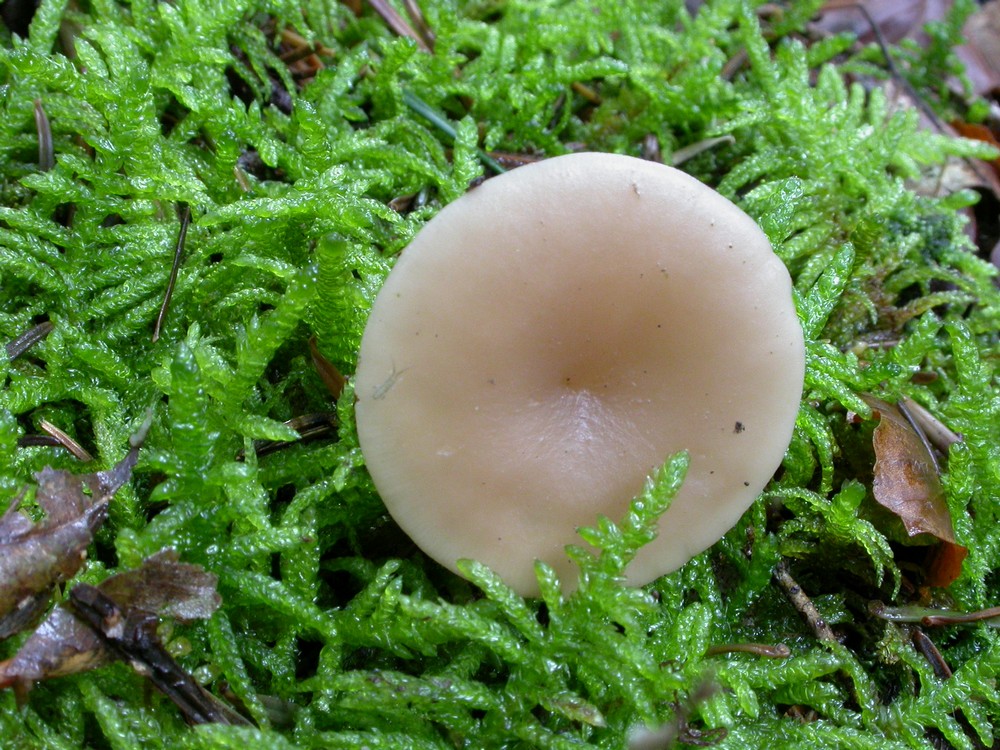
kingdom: Fungi
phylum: Basidiomycota
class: Agaricomycetes
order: Agaricales
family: Tricholomataceae
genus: Clitocybe
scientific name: Clitocybe diatreta
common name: kødfarvet tragthat
